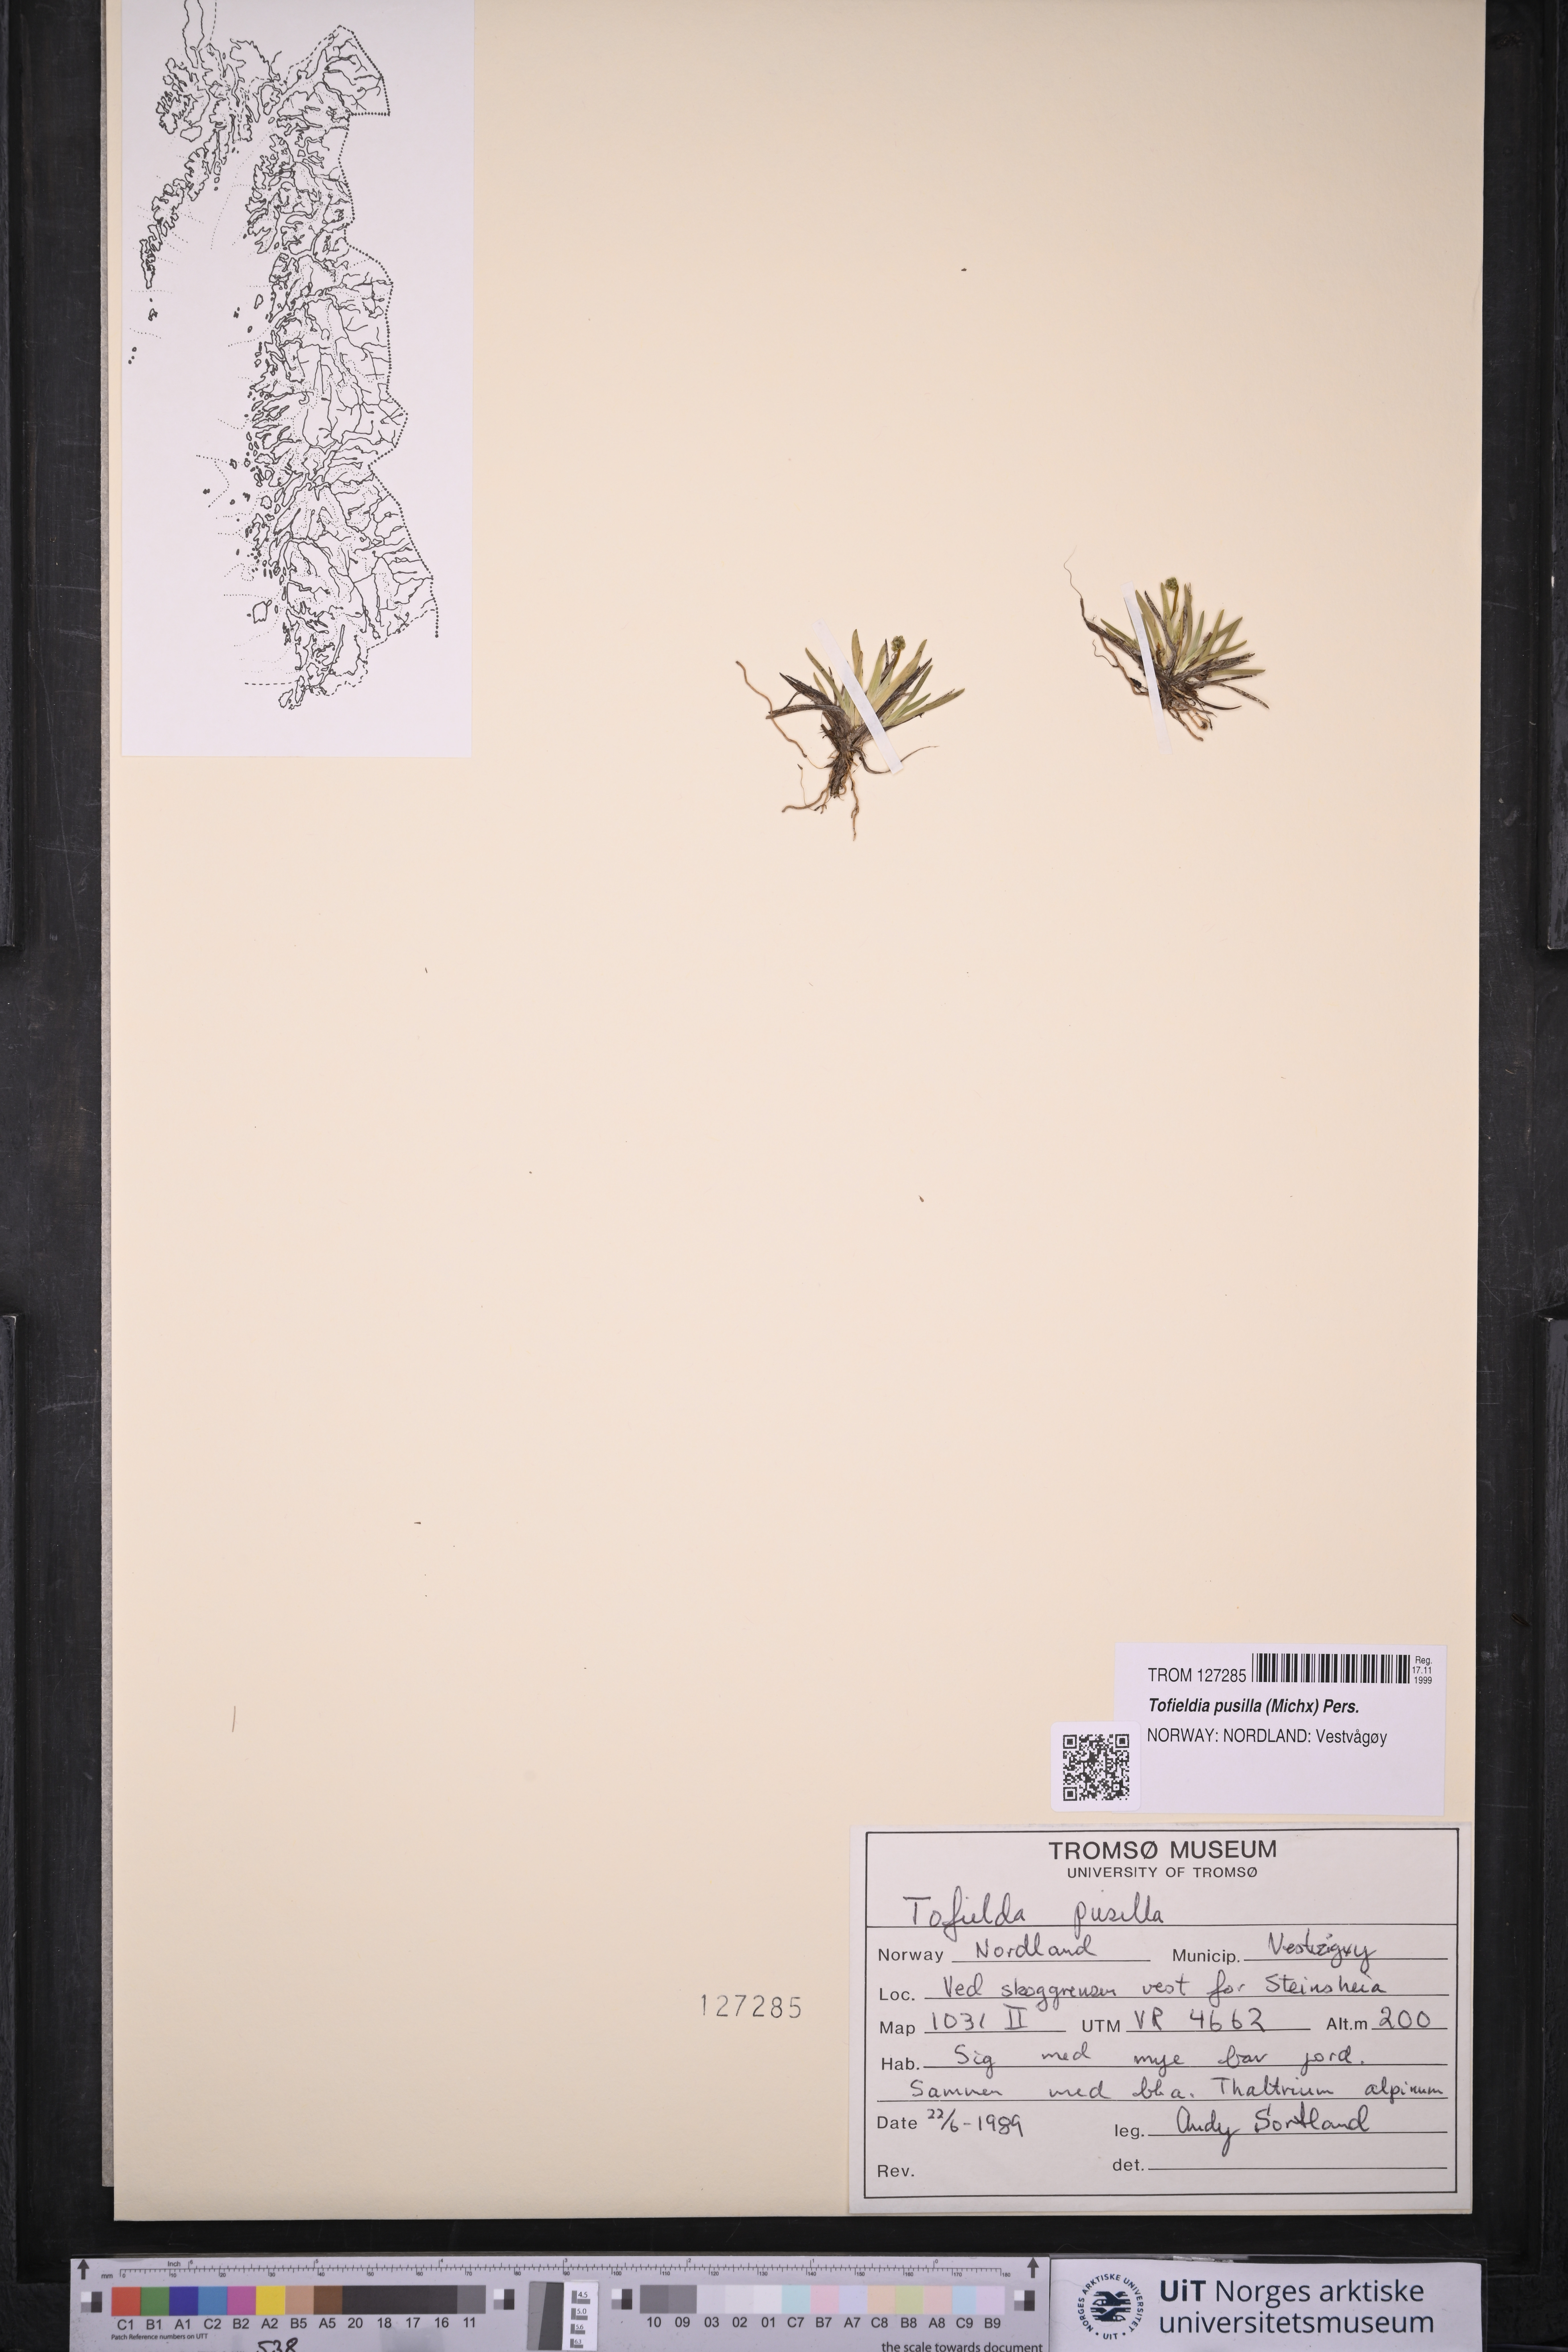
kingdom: Plantae
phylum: Tracheophyta
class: Liliopsida
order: Alismatales
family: Tofieldiaceae
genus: Tofieldia
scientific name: Tofieldia pusilla
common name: Scottish false asphodel
